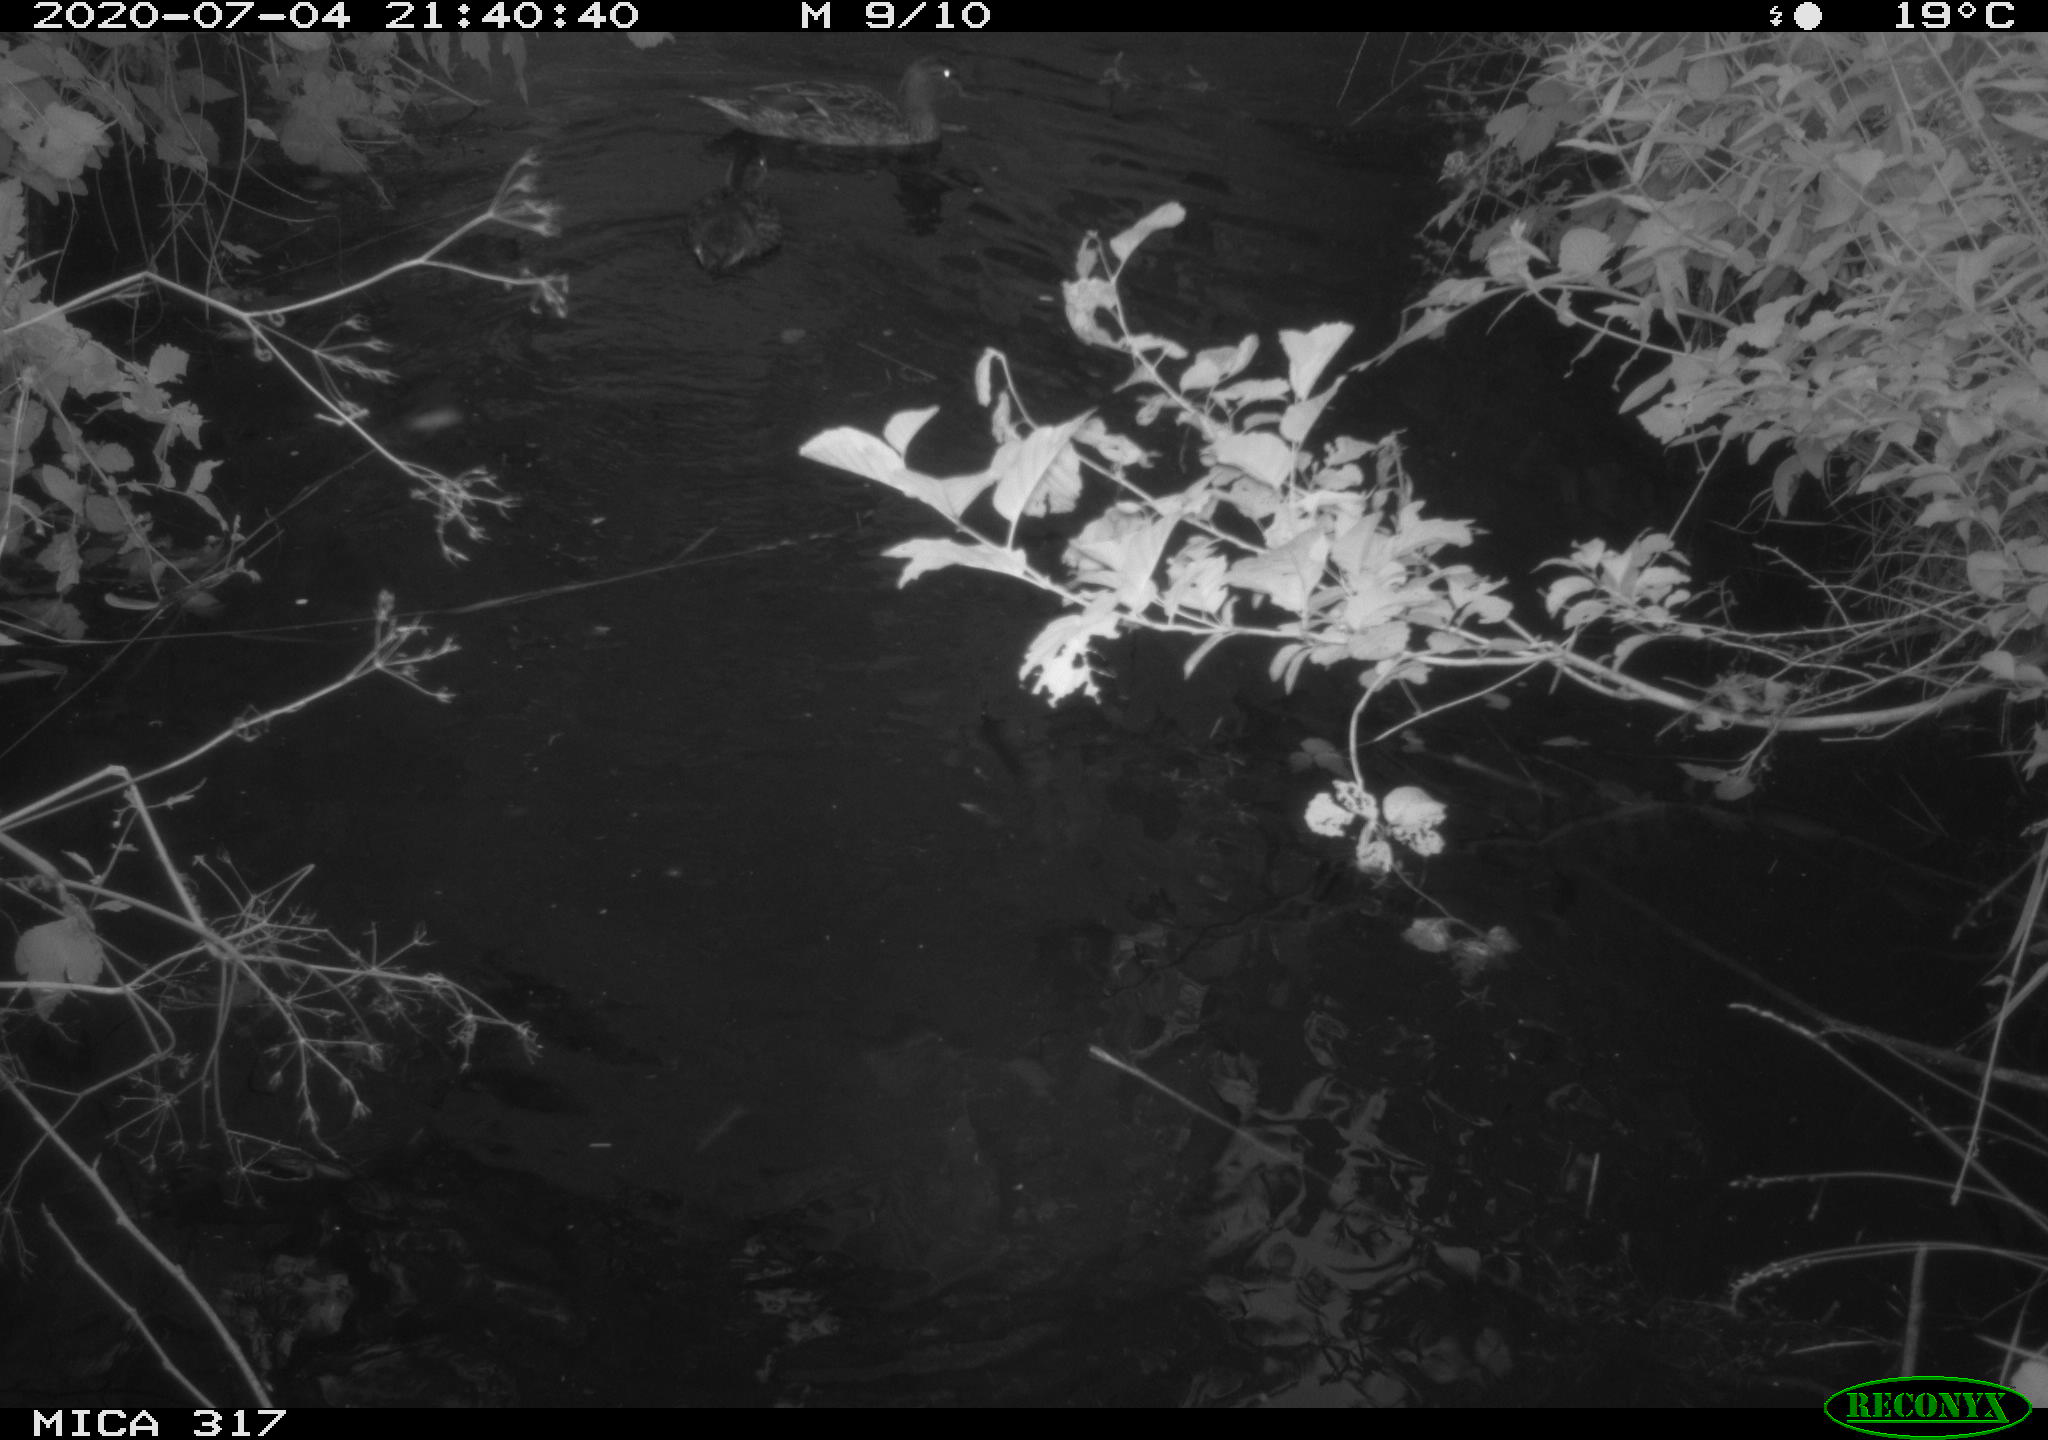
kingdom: Animalia
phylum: Chordata
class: Aves
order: Anseriformes
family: Anatidae
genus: Aix
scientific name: Aix galericulata
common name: Mandarin duck
